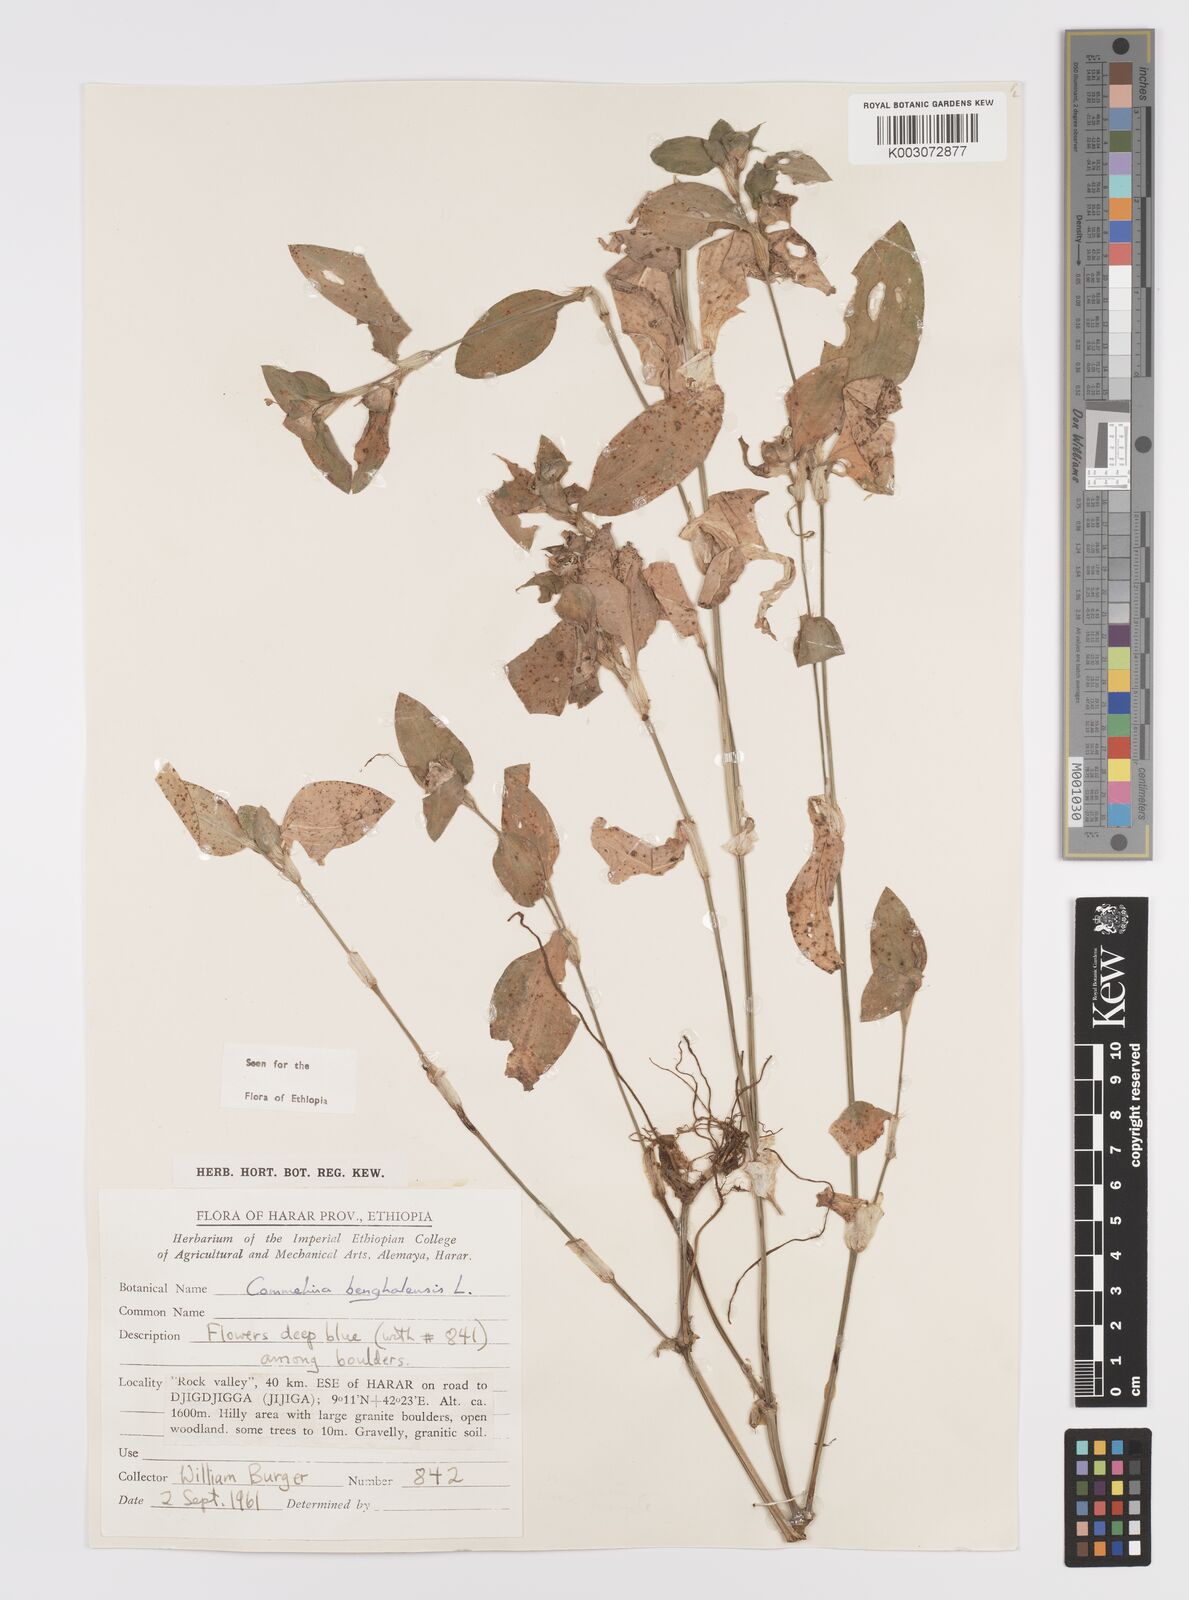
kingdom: Plantae
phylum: Tracheophyta
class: Liliopsida
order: Commelinales
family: Commelinaceae
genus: Commelina
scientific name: Commelina benghalensis
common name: Jio
